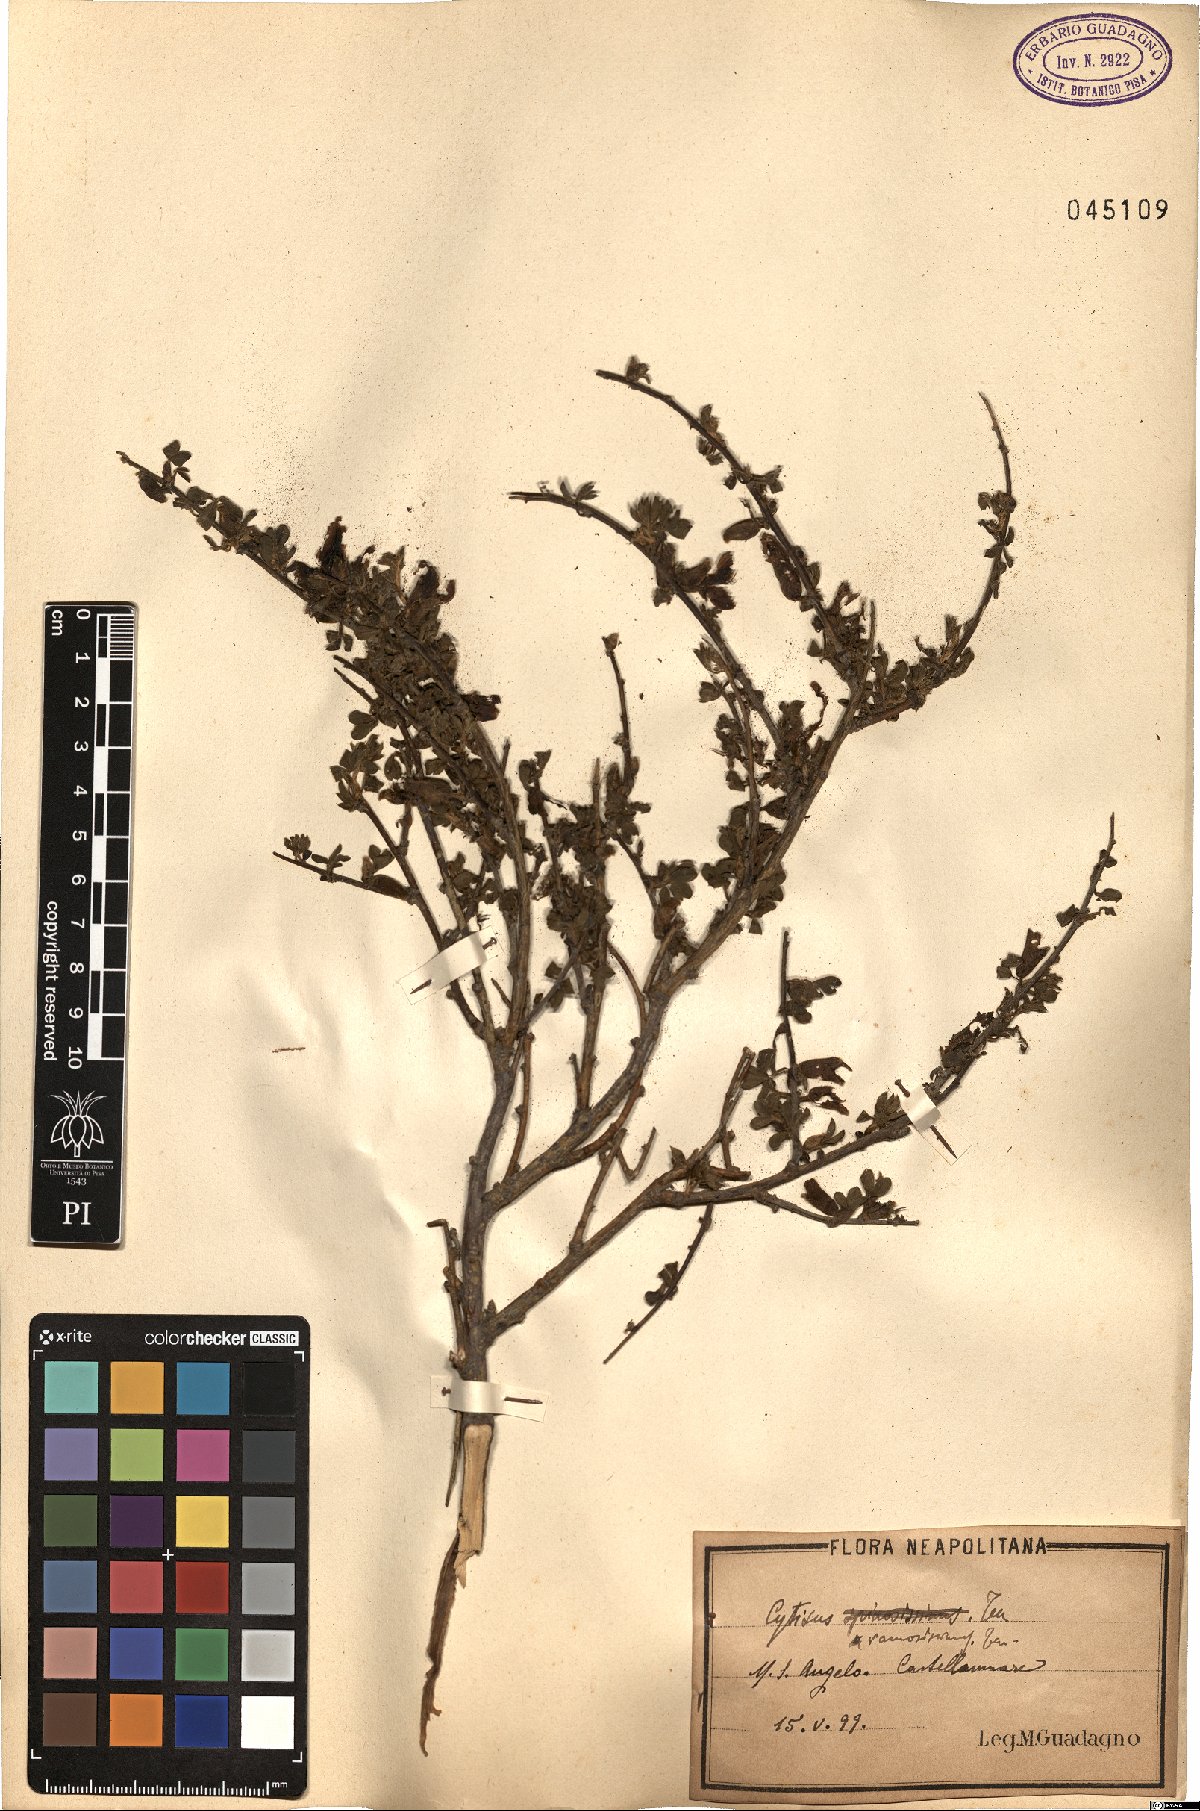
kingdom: Plantae
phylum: Tracheophyta
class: Magnoliopsida
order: Fabales
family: Fabaceae
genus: Chamaecytisus
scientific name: Chamaecytisus spinescens
